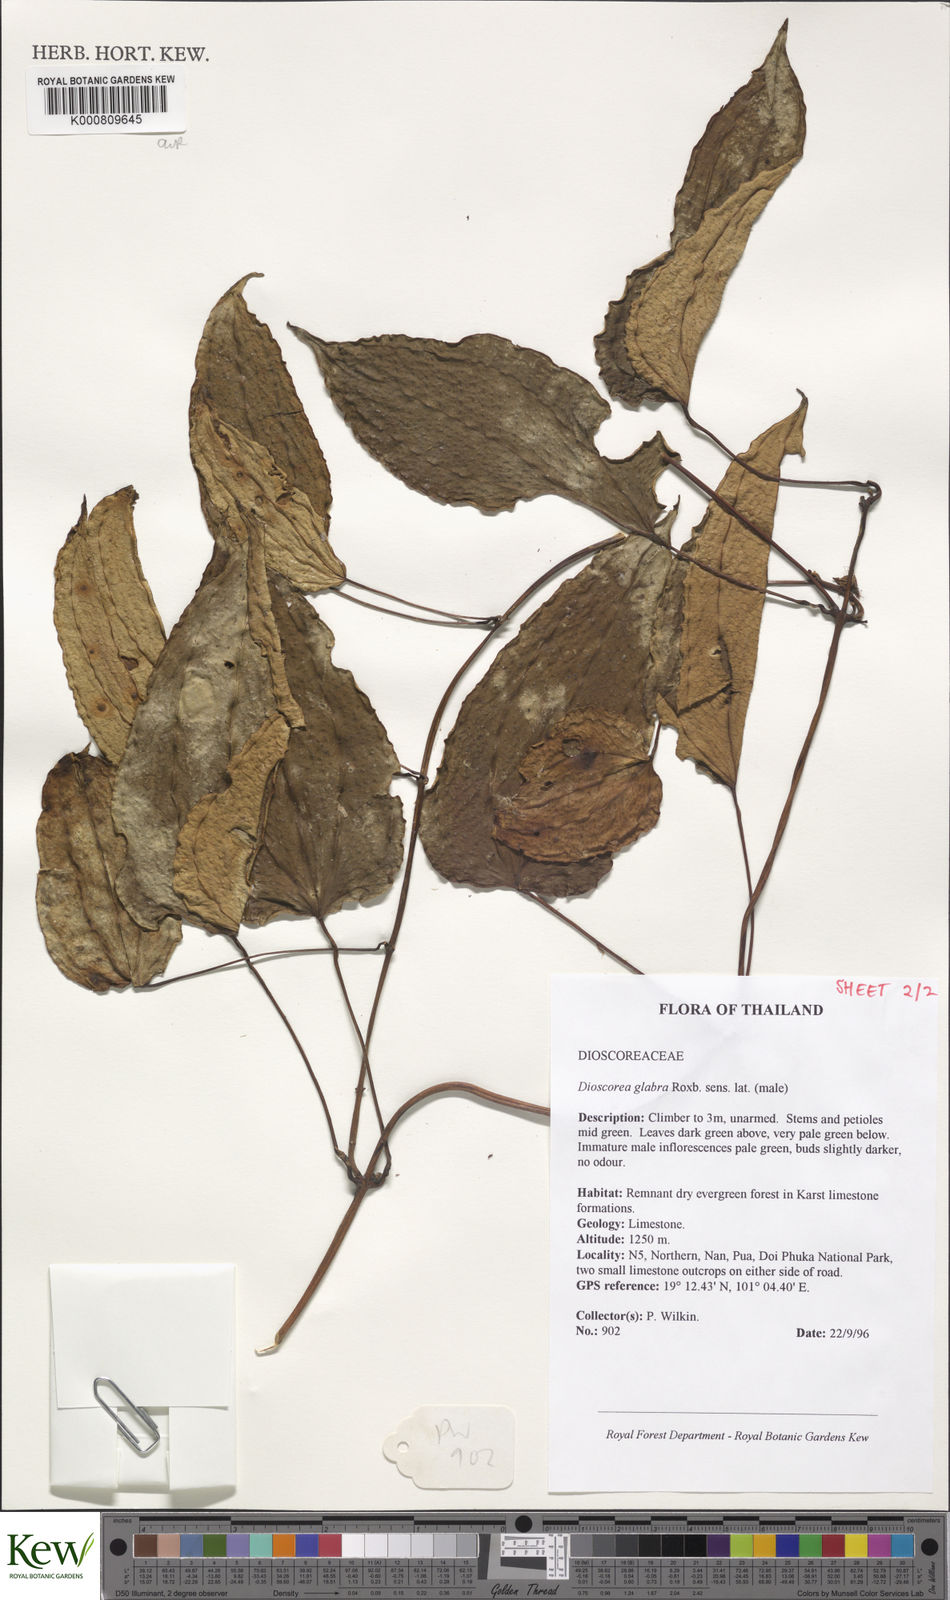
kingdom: Plantae
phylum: Tracheophyta
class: Liliopsida
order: Dioscoreales
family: Dioscoreaceae
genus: Dioscorea
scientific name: Dioscorea glabra
